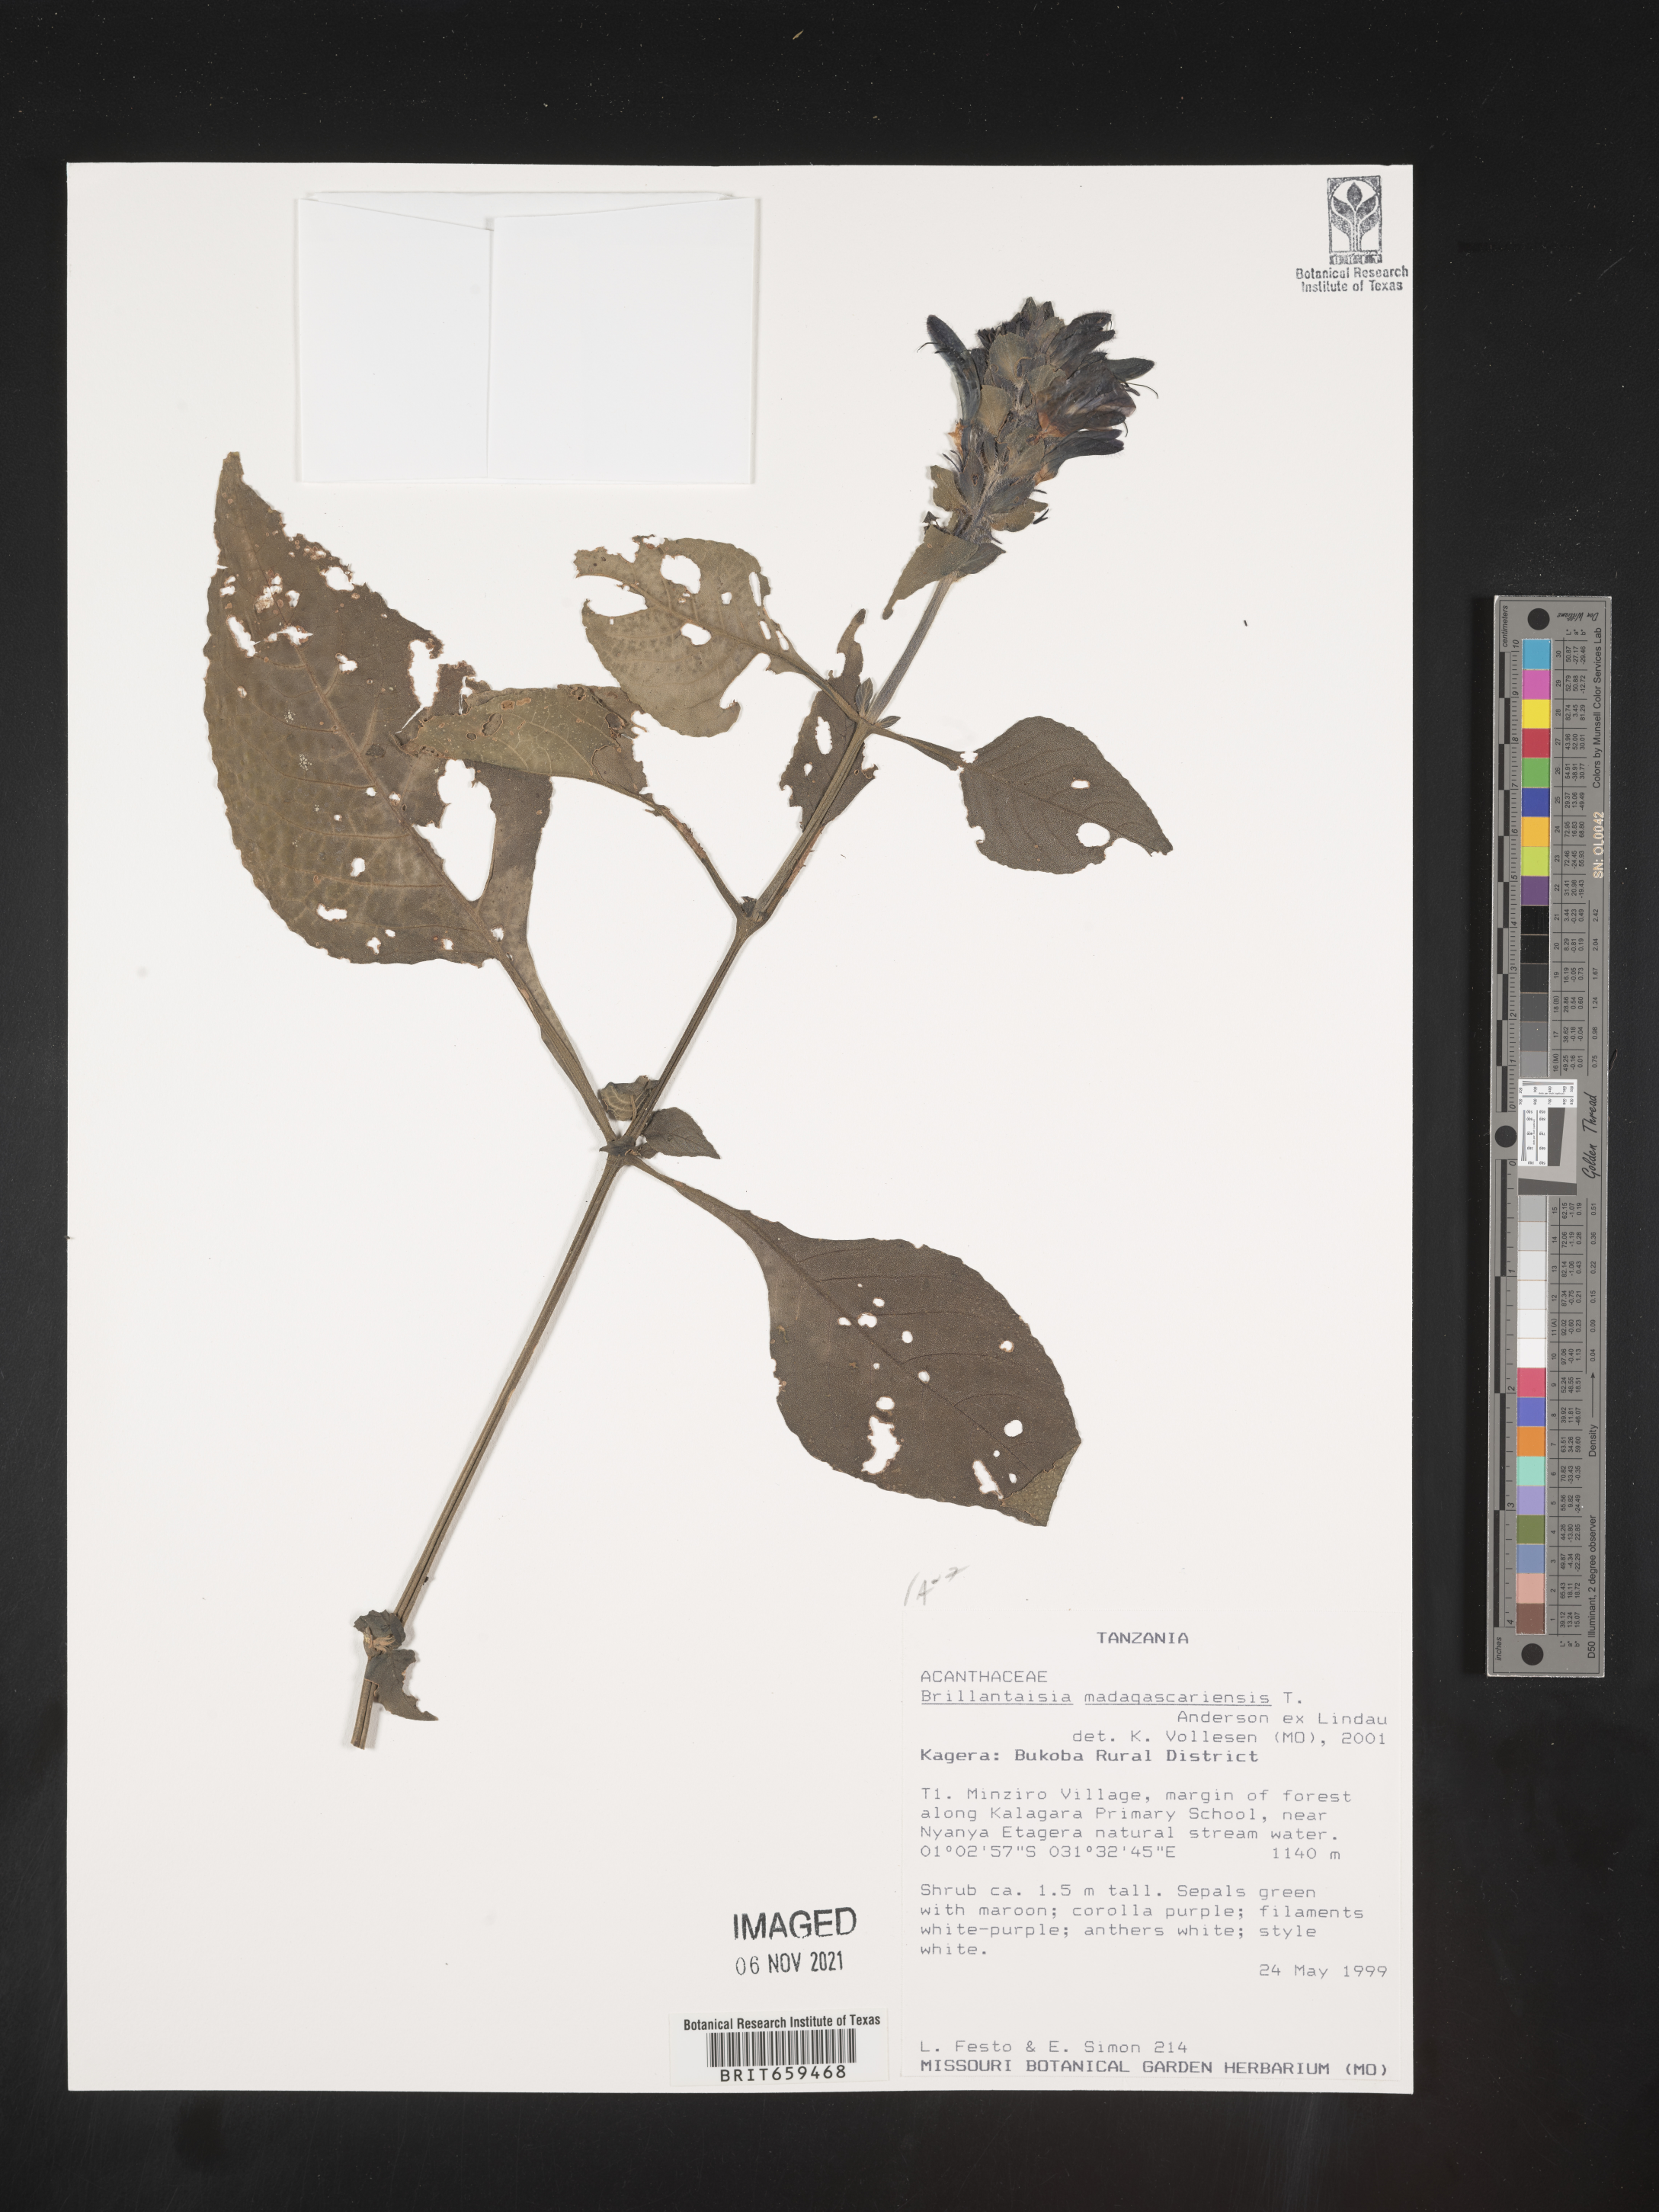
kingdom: Plantae
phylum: Tracheophyta
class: Magnoliopsida
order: Lamiales
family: Acanthaceae
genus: Brillantaisia
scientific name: Brillantaisia madagascariensis
